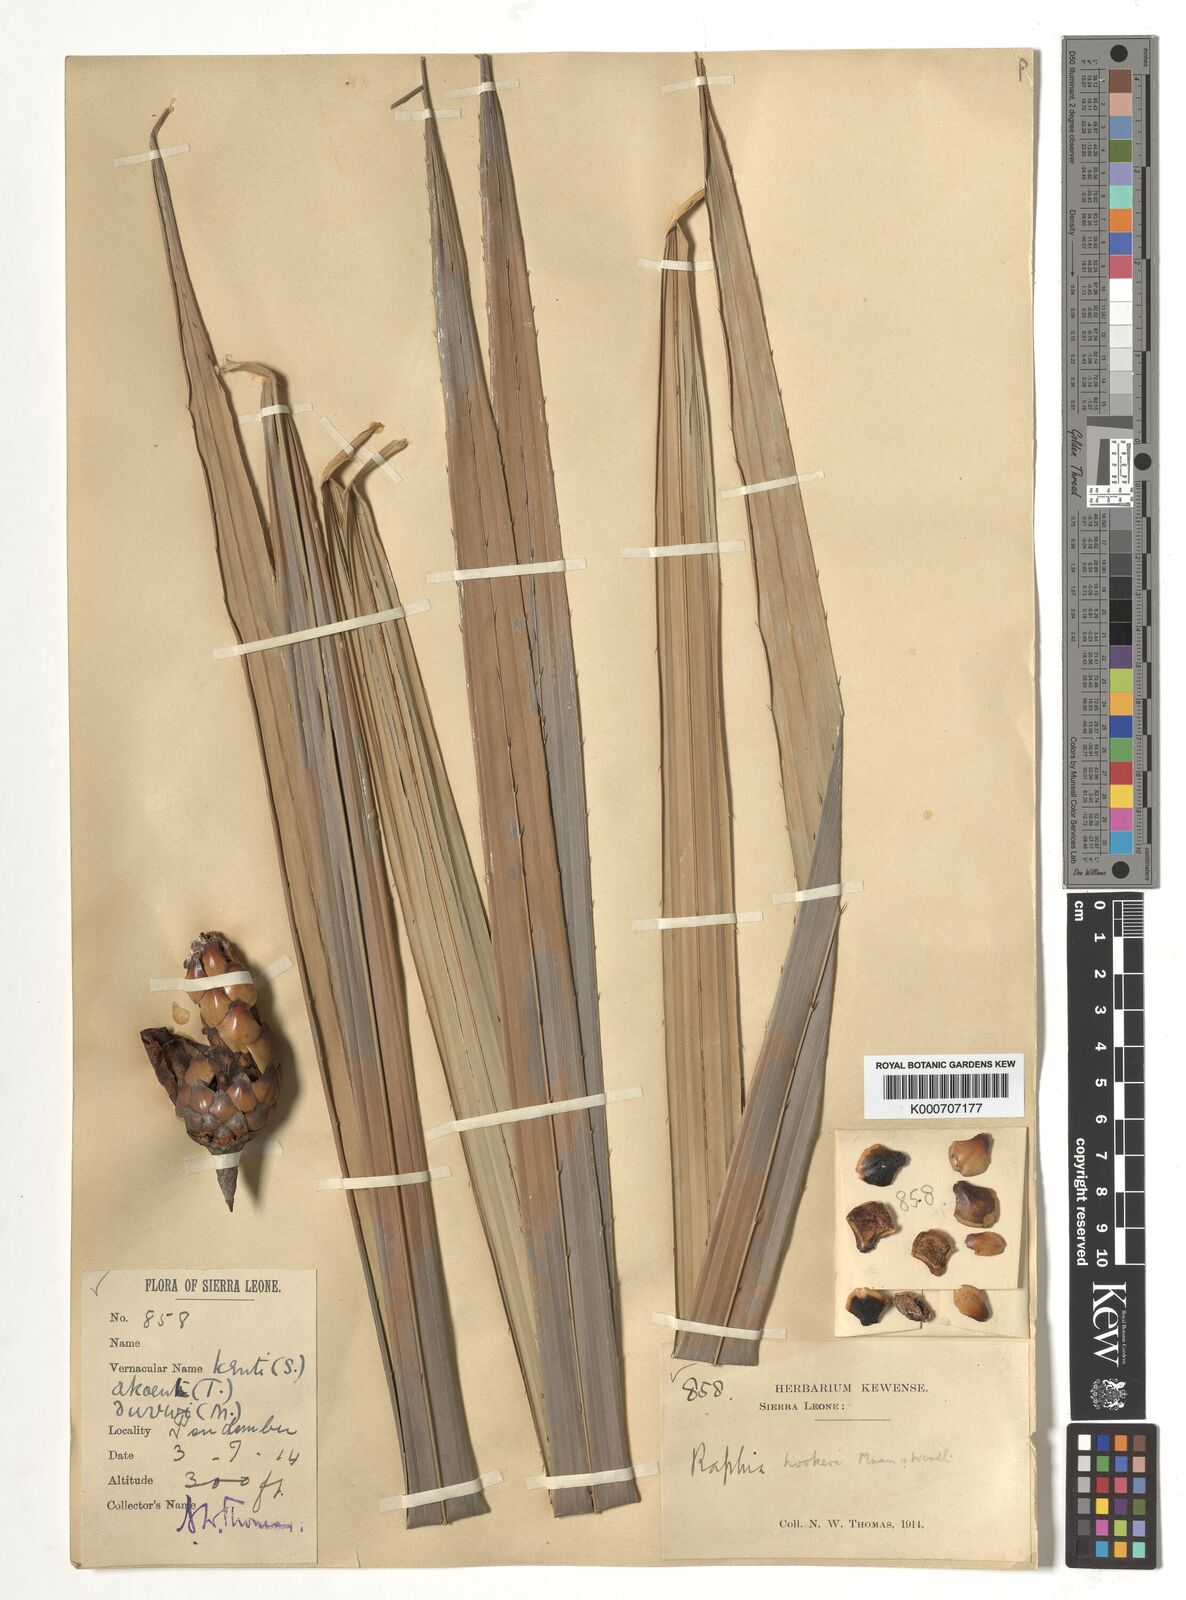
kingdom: Plantae
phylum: Tracheophyta
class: Liliopsida
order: Arecales
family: Arecaceae
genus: Raphia
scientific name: Raphia hookeri
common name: Wine palm
